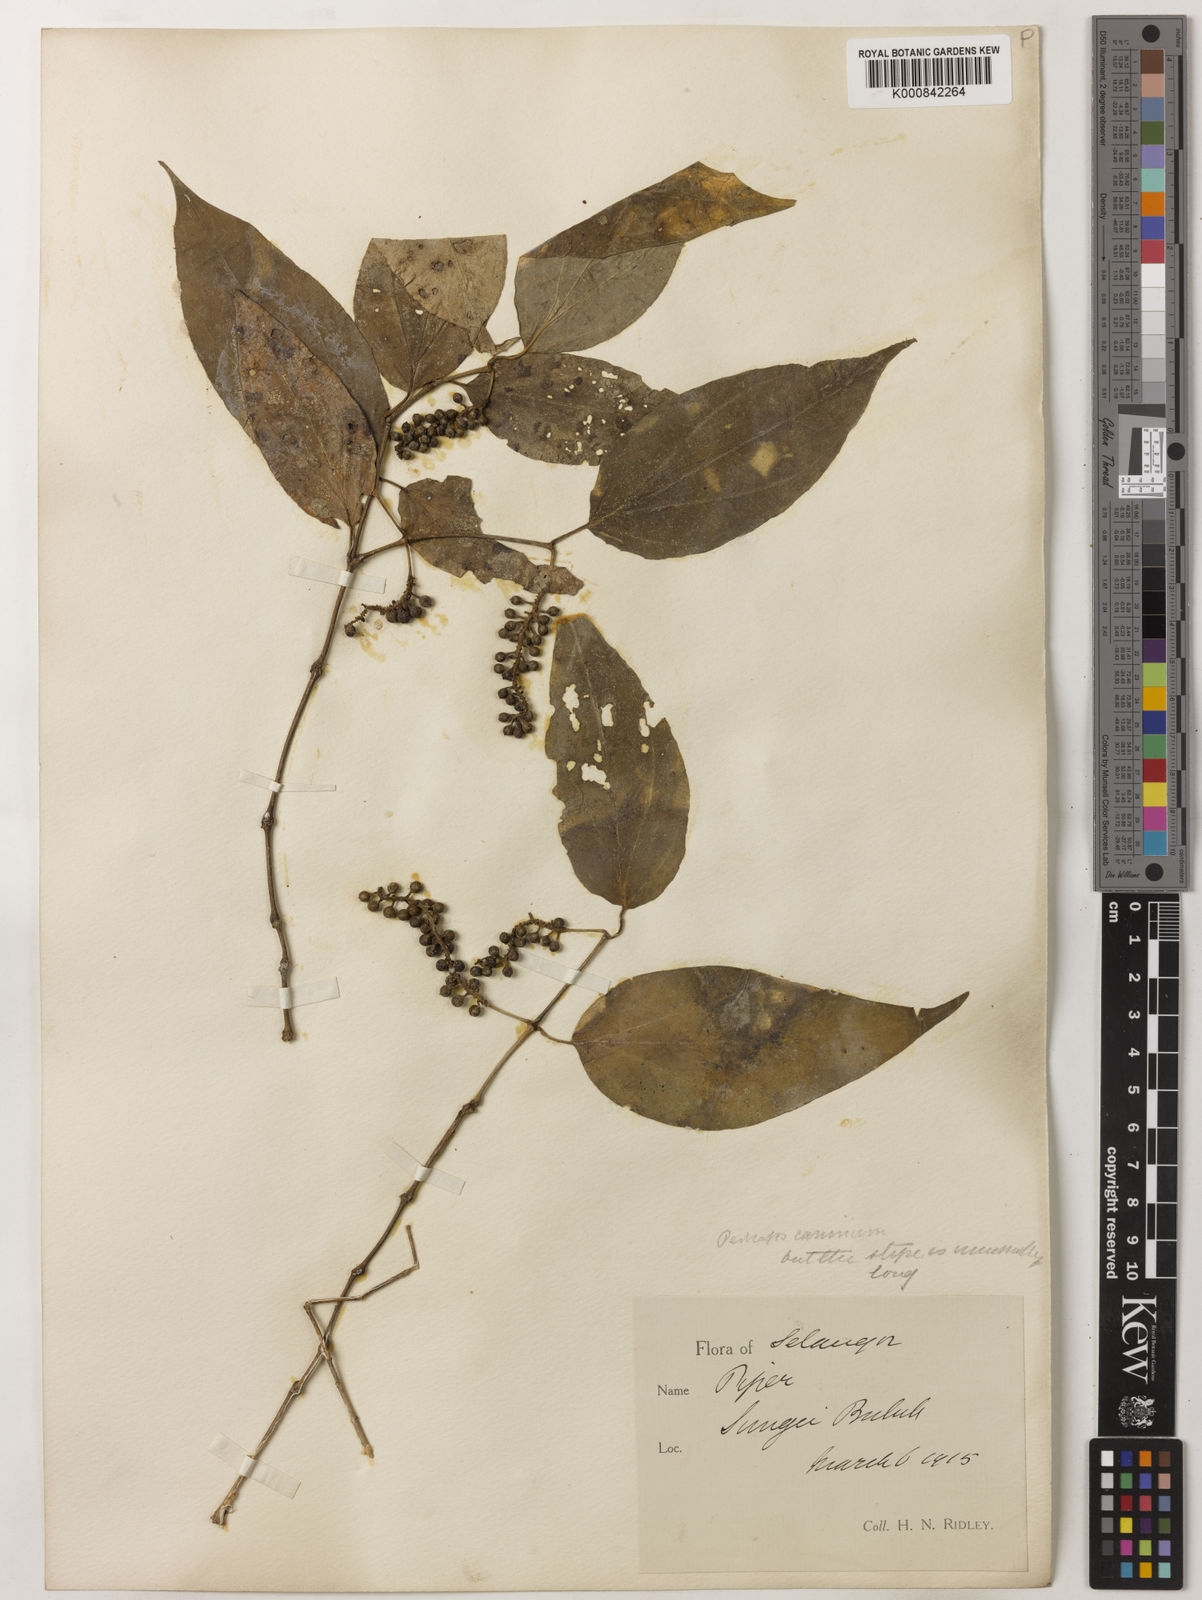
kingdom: Plantae
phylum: Tracheophyta
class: Magnoliopsida
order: Piperales
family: Piperaceae
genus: Piper
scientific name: Piper lanatum
